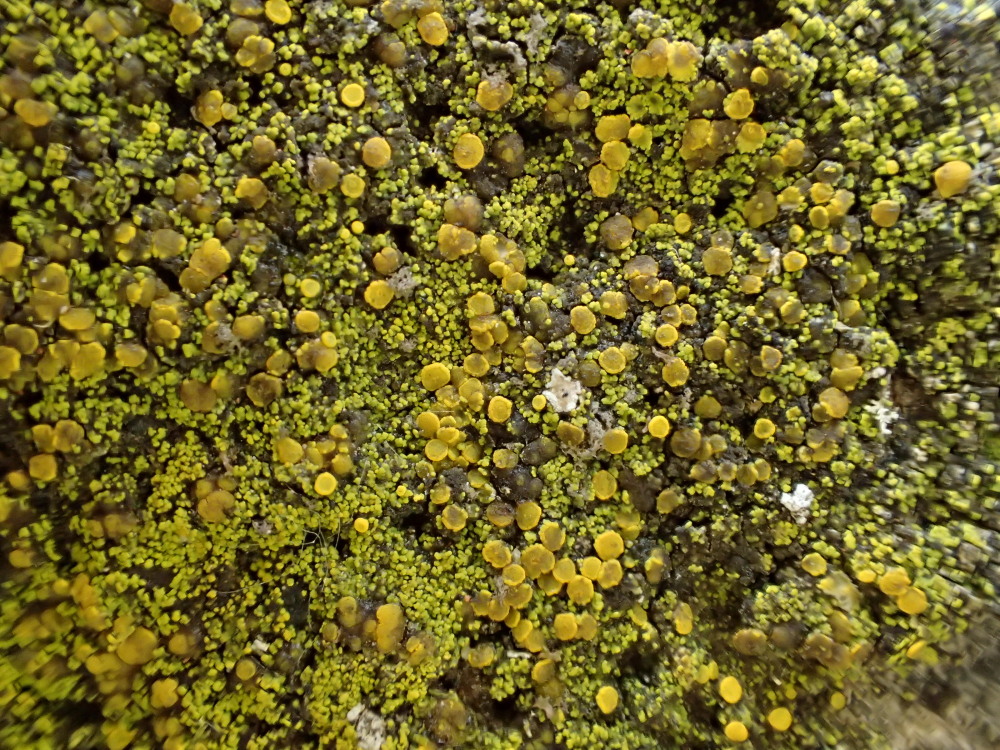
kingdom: Fungi
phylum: Ascomycota
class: Candelariomycetes
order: Candelariales
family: Candelariaceae
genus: Candelariella
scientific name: Candelariella vitellina
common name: almindelig æggeblommelav
